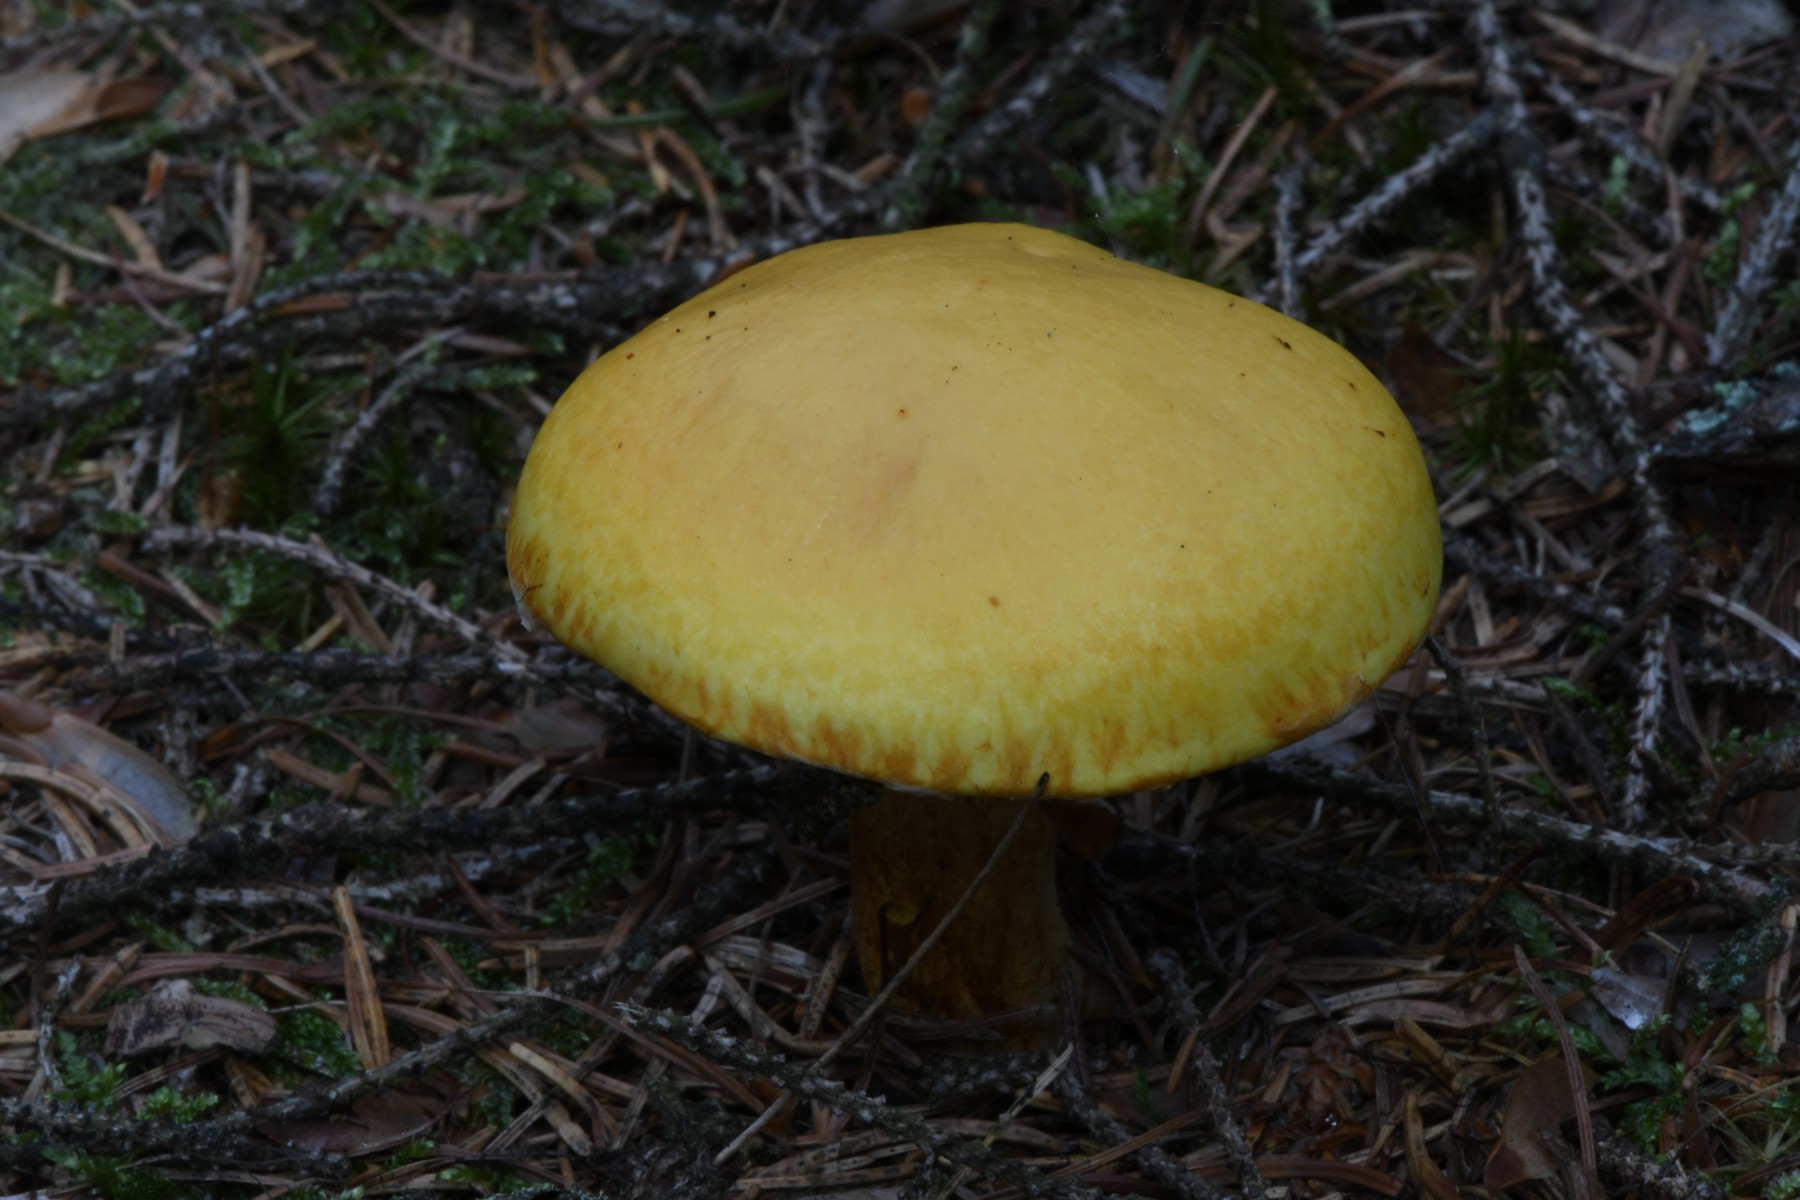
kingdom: Fungi
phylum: Basidiomycota
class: Agaricomycetes
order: Boletales
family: Suillaceae
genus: Suillus
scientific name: Suillus grevillei
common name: lærke-slimrørhat
